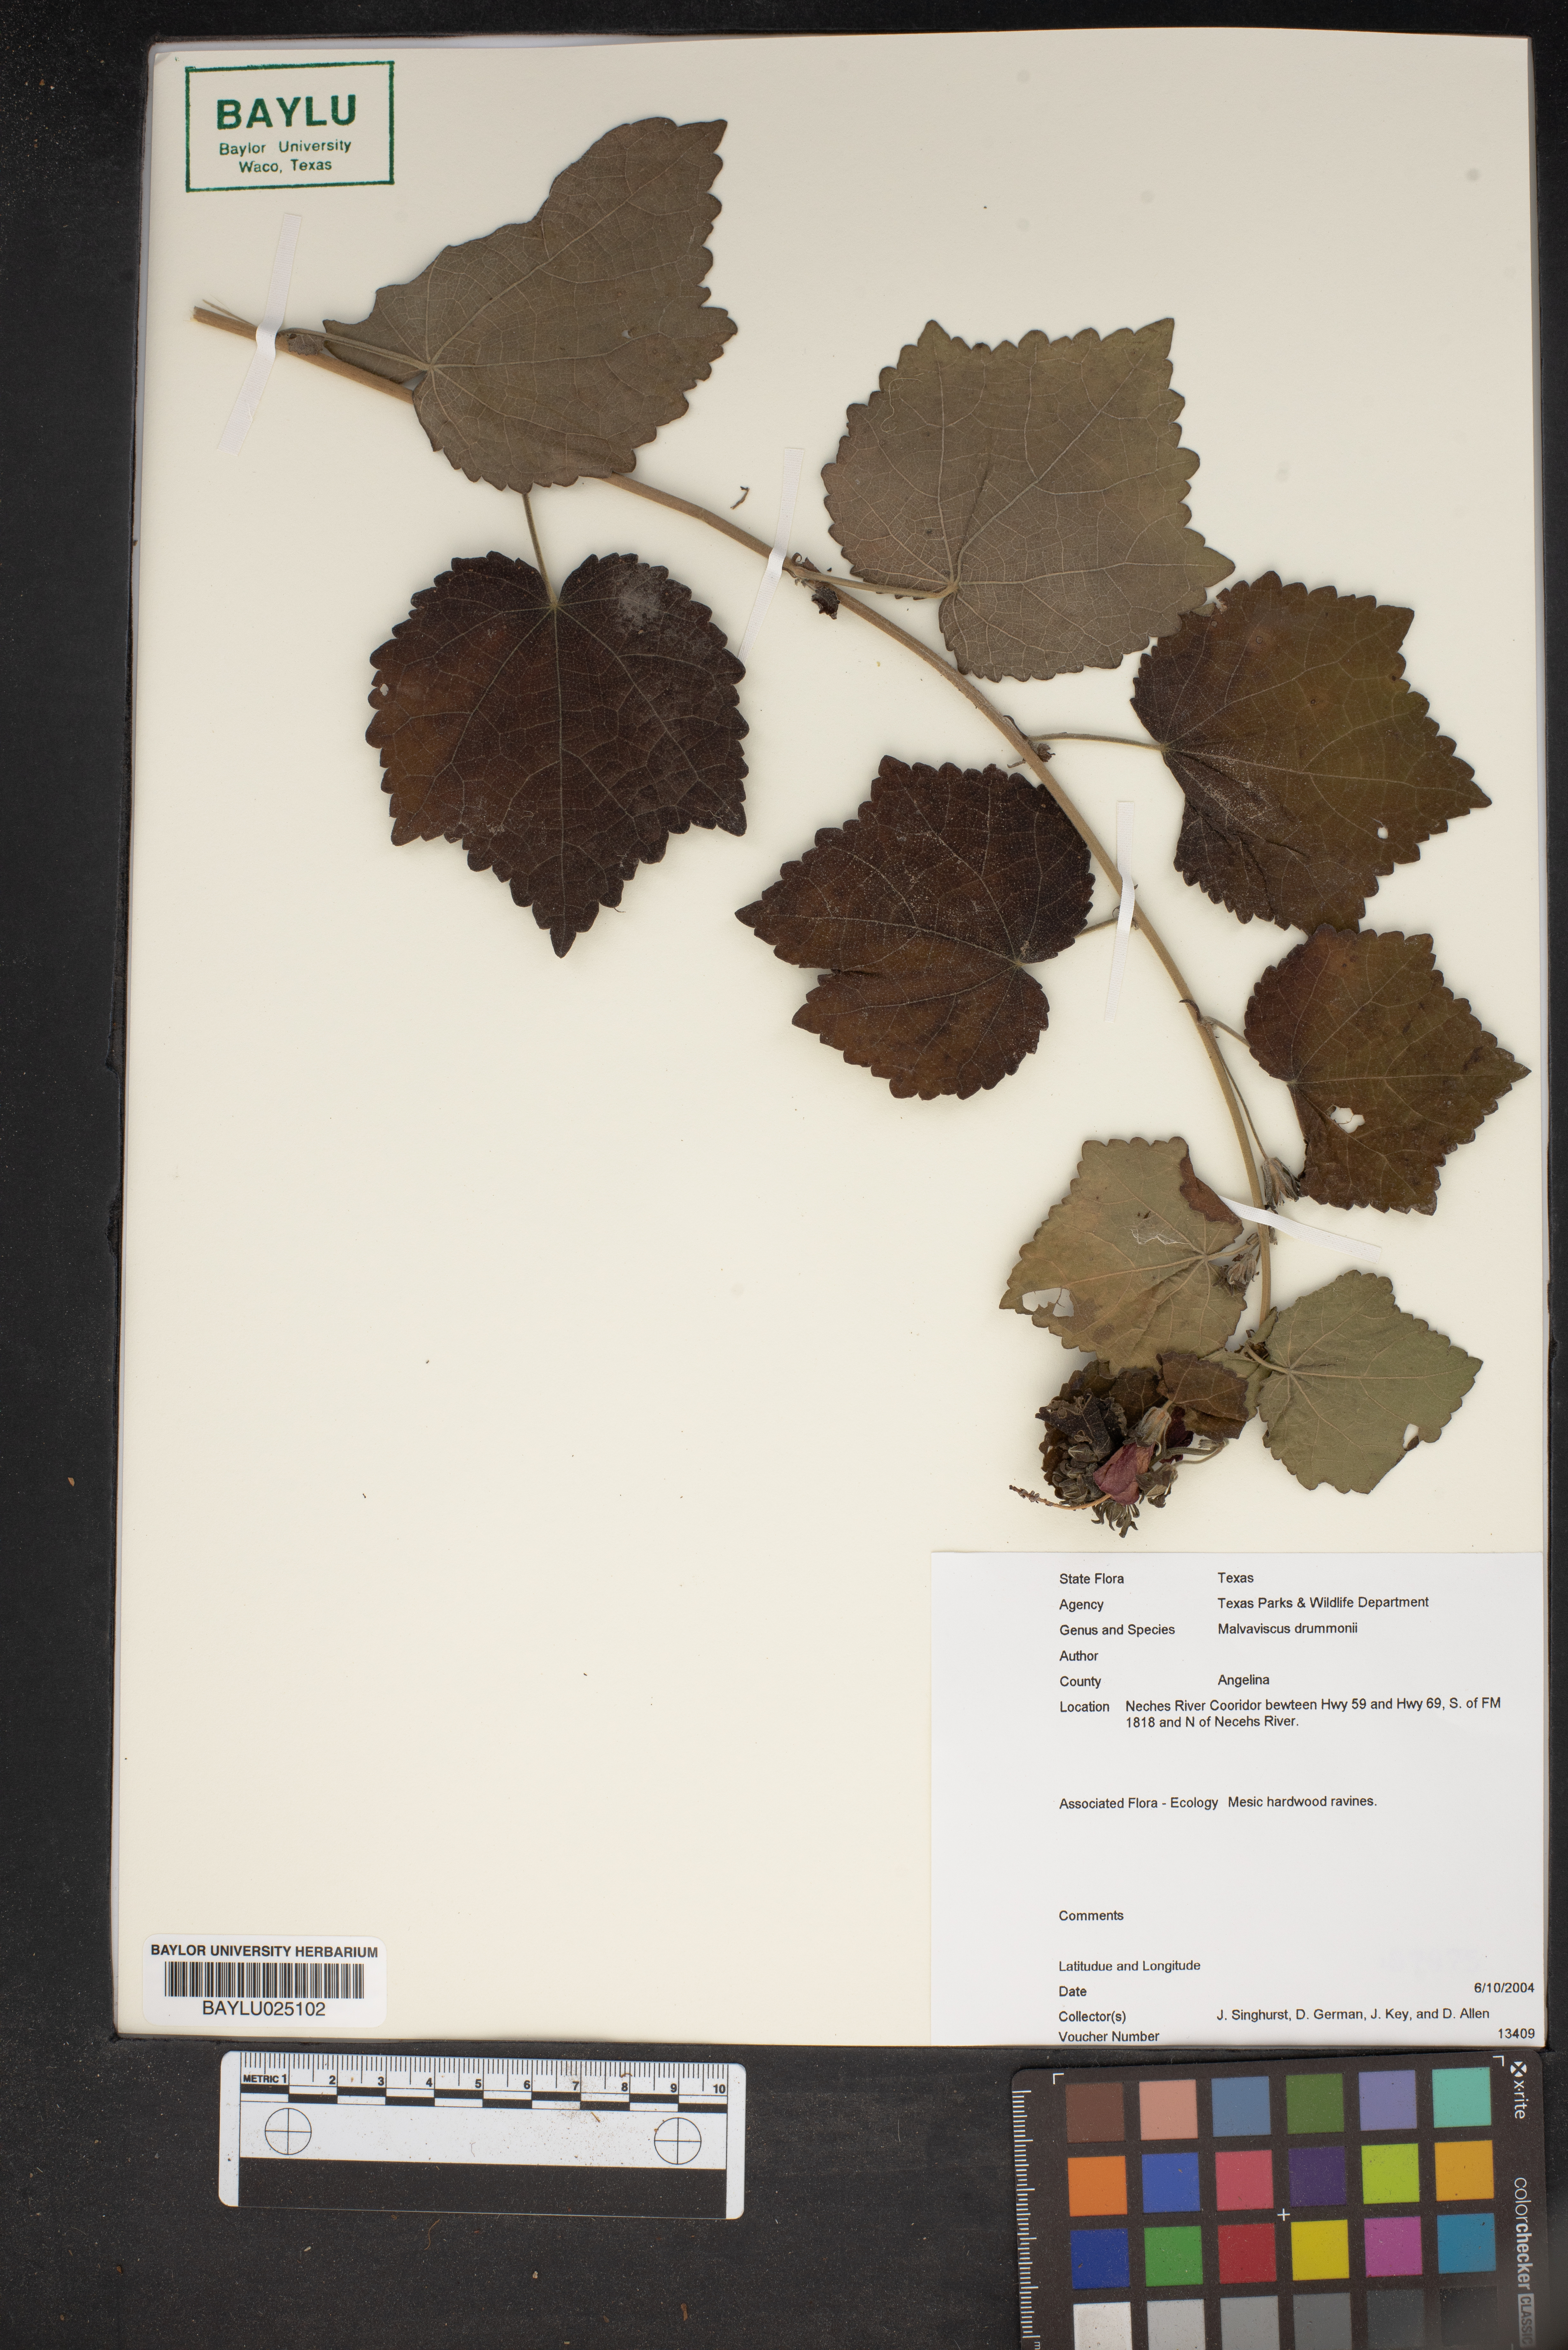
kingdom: Plantae
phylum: Tracheophyta
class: Magnoliopsida
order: Malvales
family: Malvaceae
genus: Malvaviscus
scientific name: Malvaviscus arboreus
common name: Wax mallow
